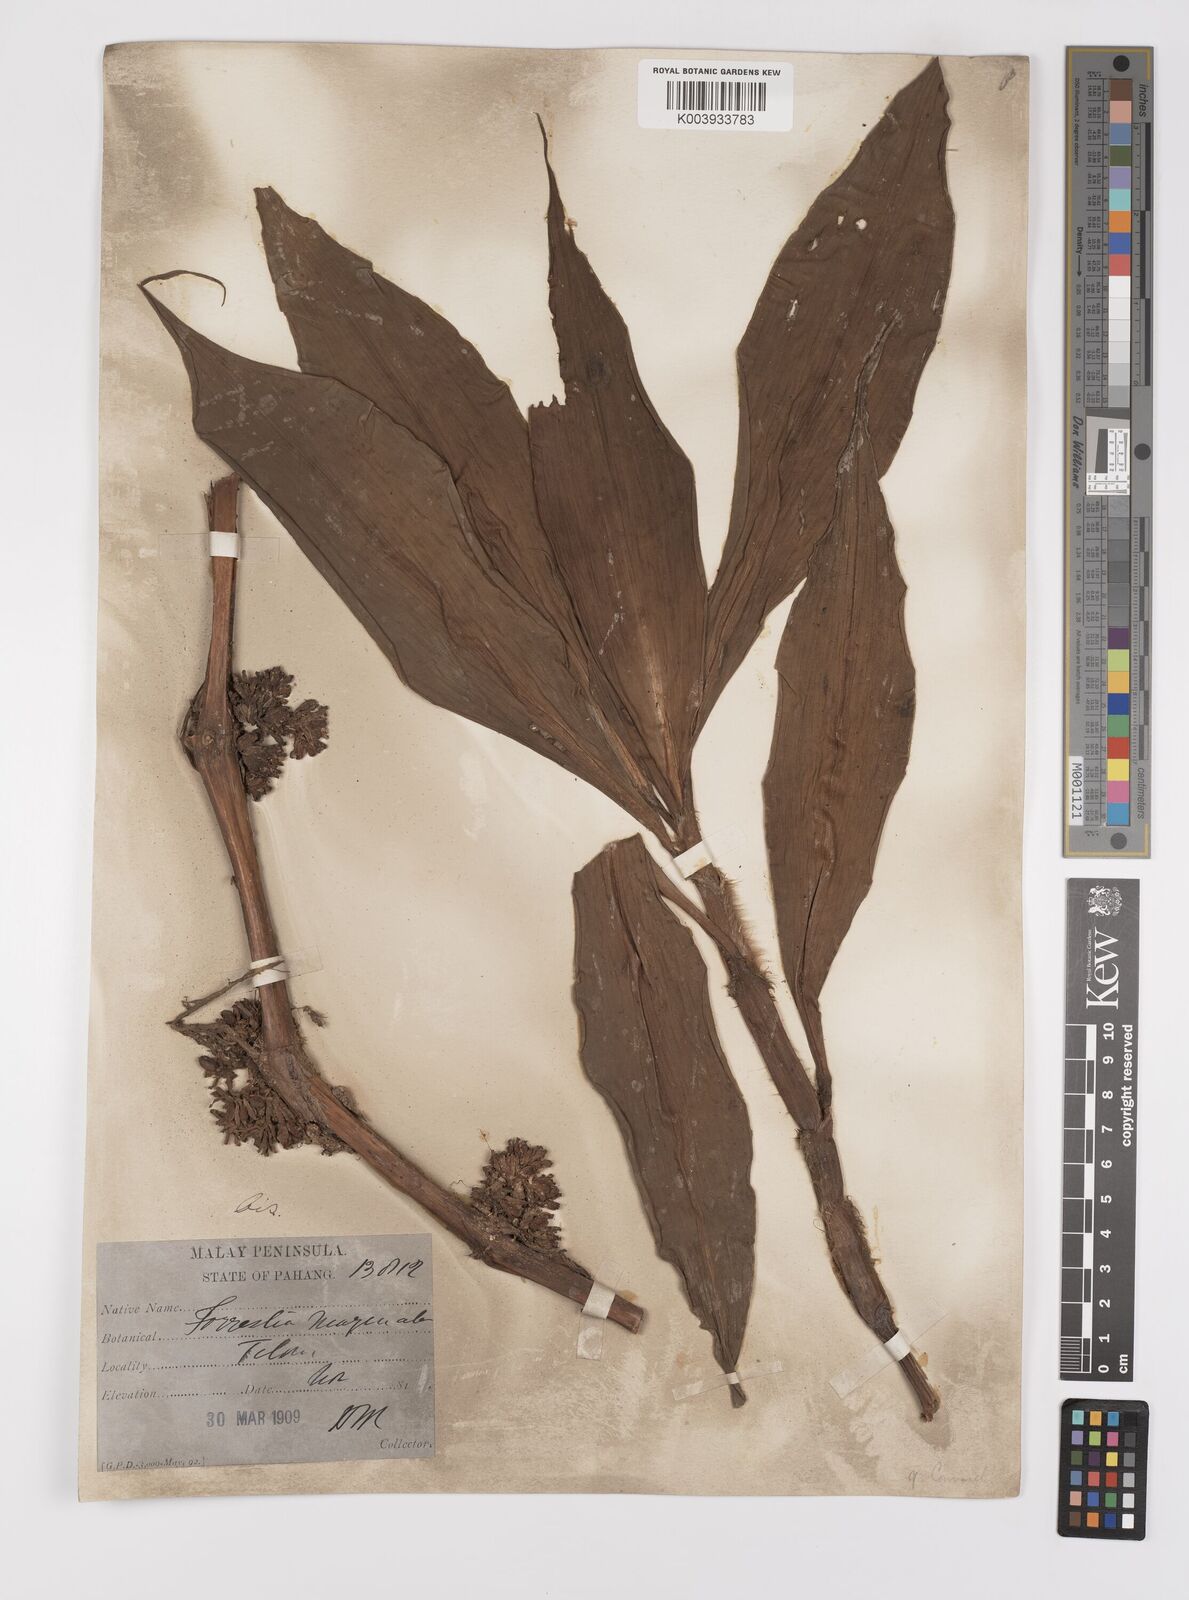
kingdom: Plantae
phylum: Tracheophyta
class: Liliopsida
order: Commelinales
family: Commelinaceae
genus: Amischotolype
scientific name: Amischotolype marginata
